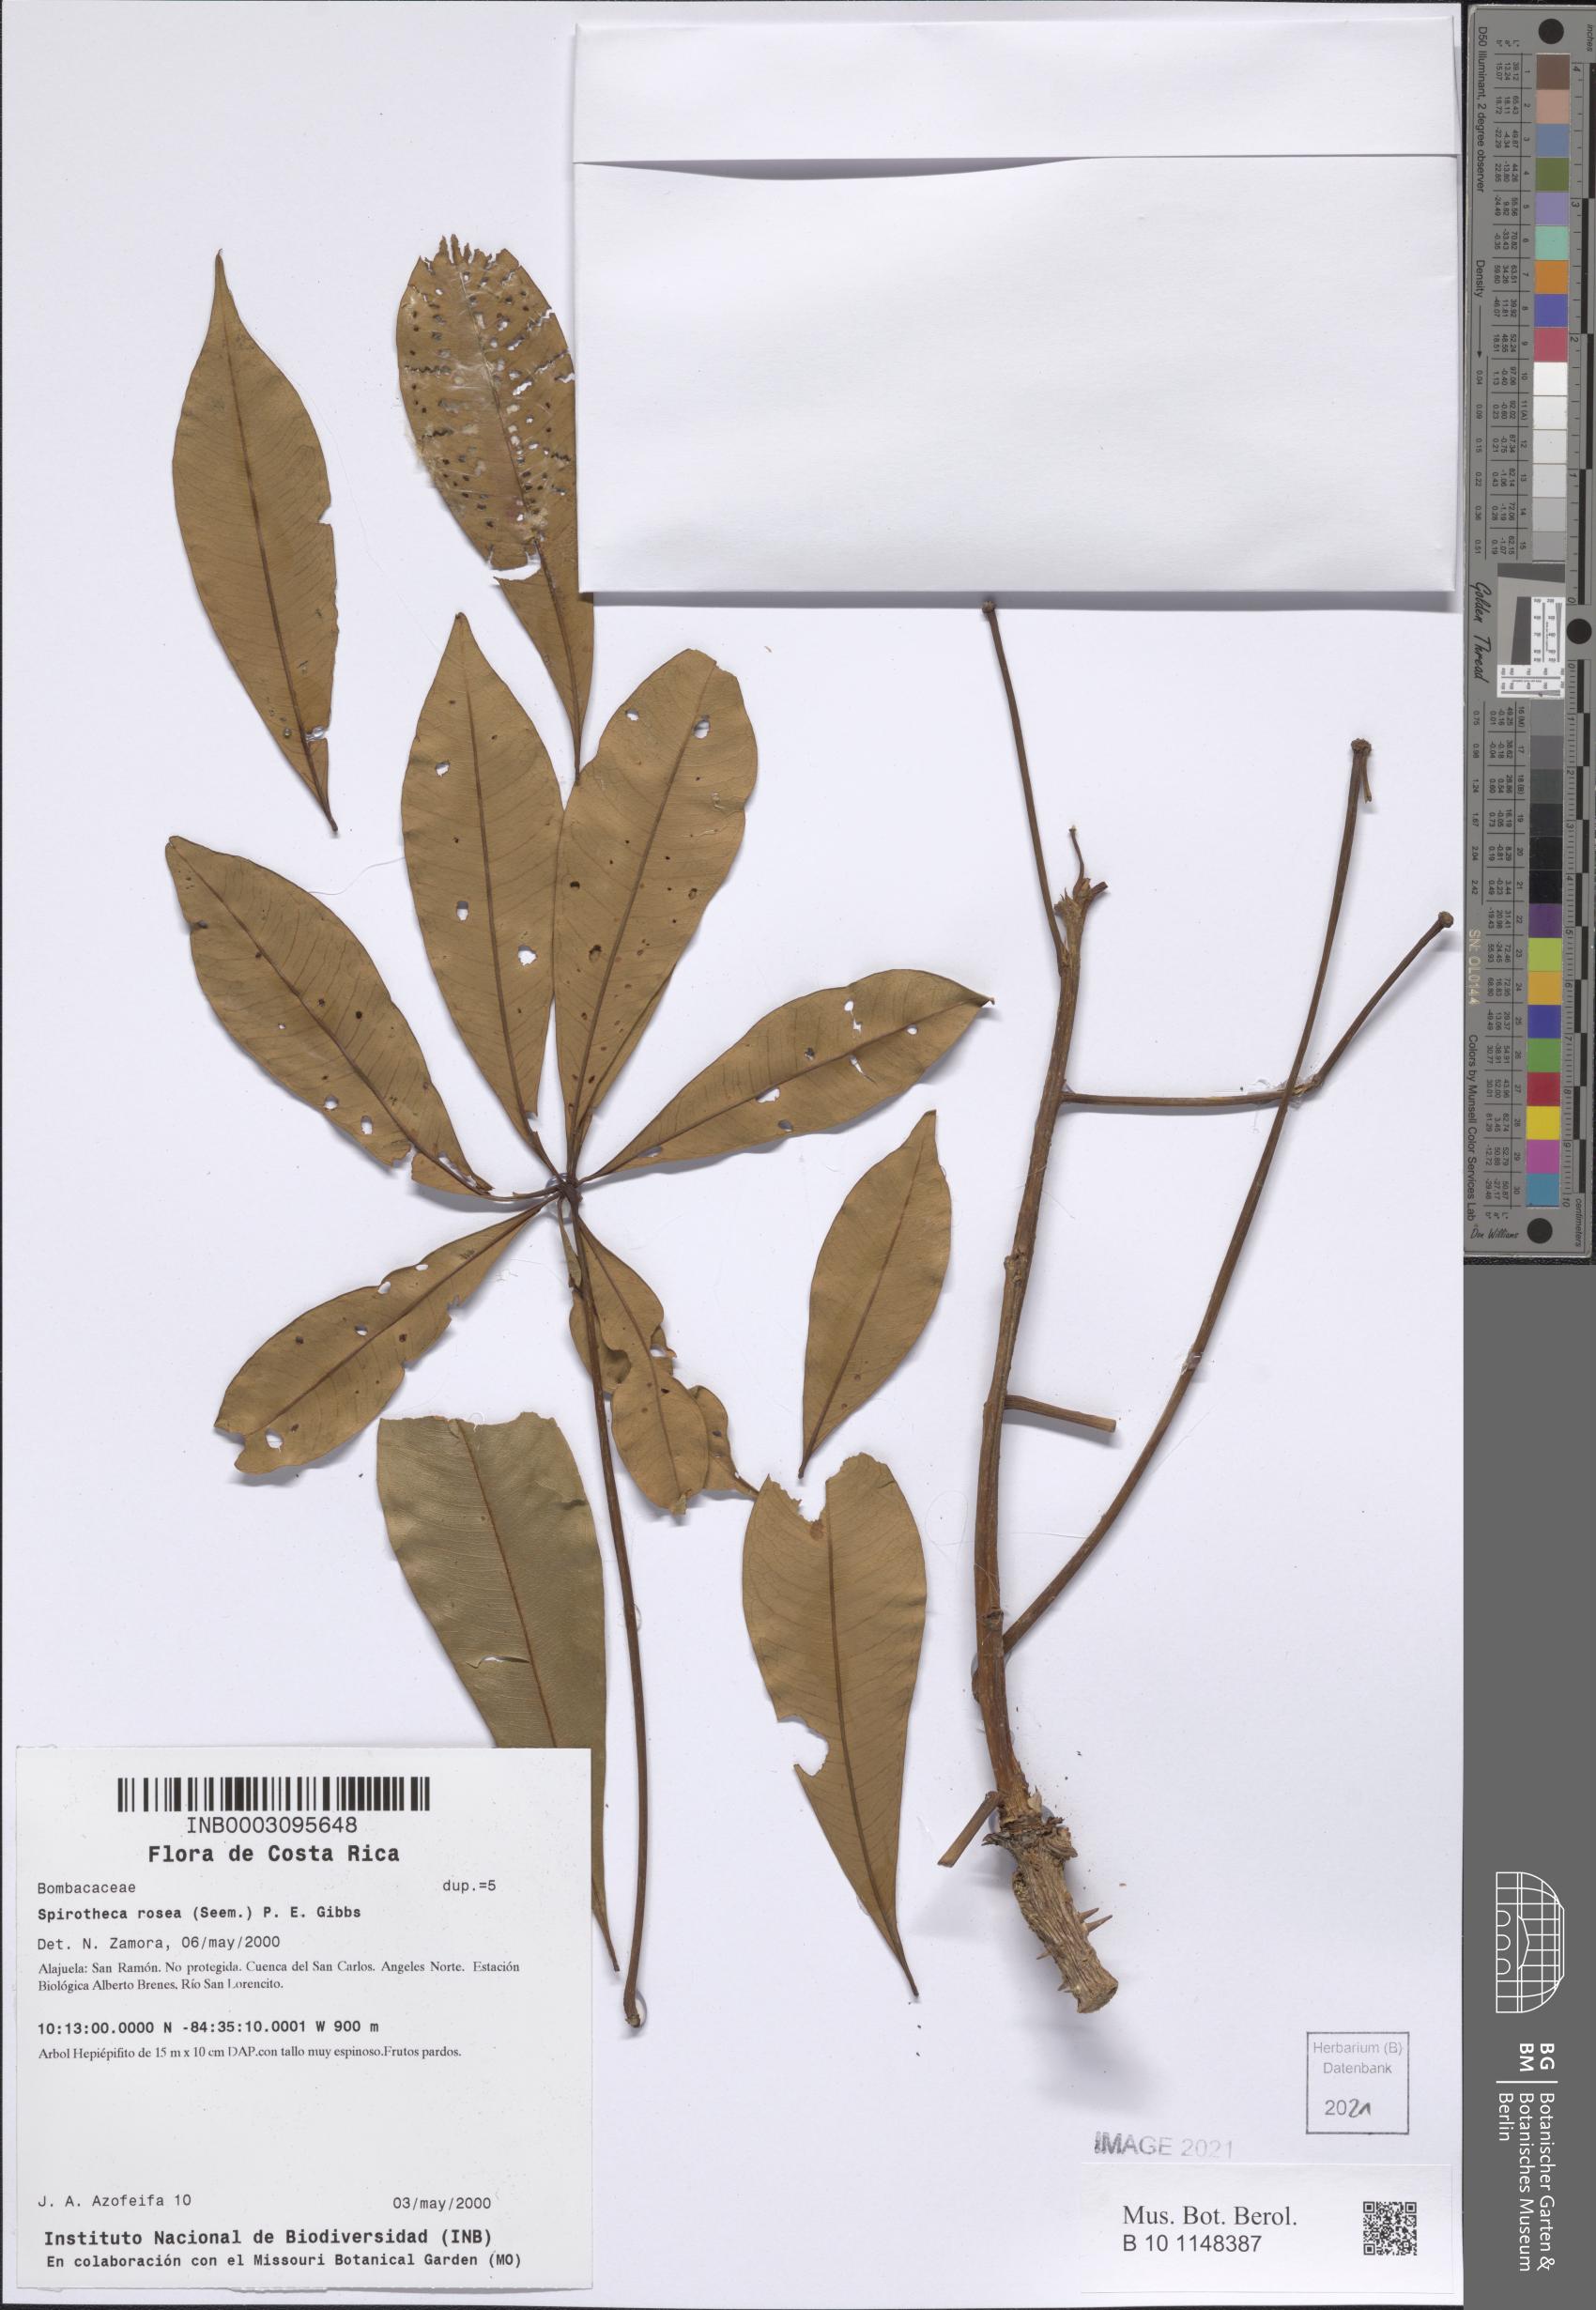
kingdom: Plantae
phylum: Tracheophyta
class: Magnoliopsida
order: Malvales
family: Malvaceae
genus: Spirotheca
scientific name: Spirotheca rosea
